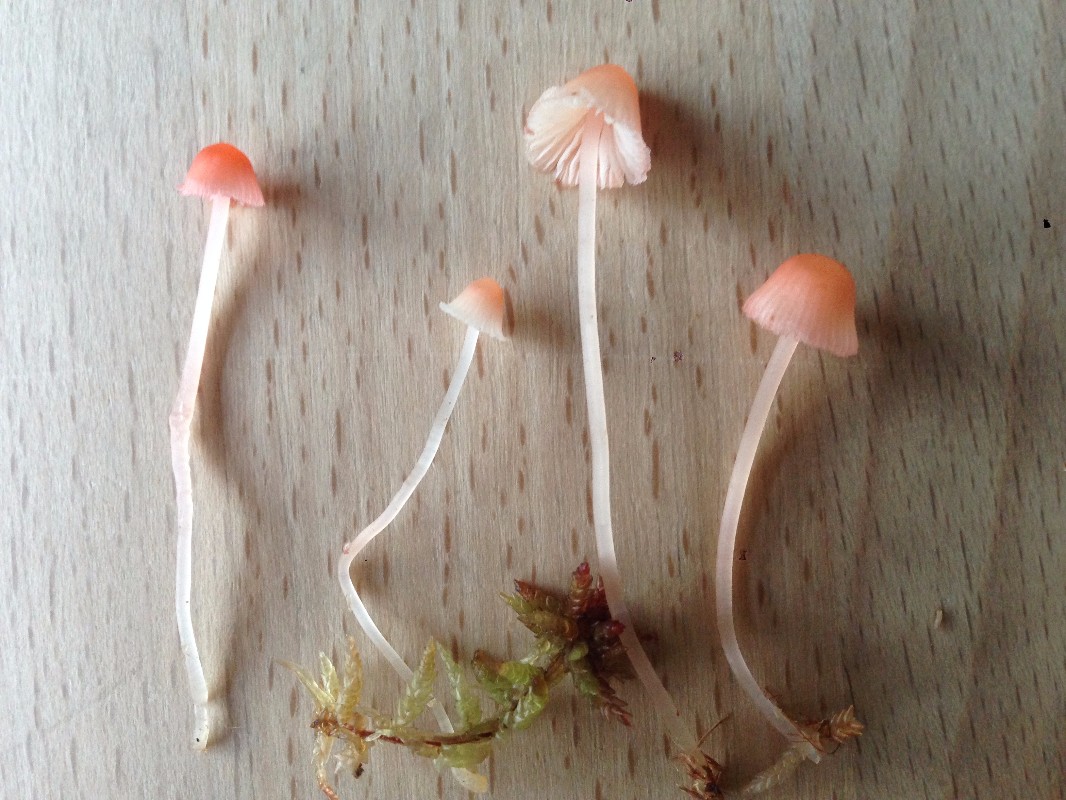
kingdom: Fungi
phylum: Basidiomycota
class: Agaricomycetes
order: Agaricales
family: Mycenaceae
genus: Atheniella
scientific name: Atheniella adonis
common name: rønnerød huesvamp
